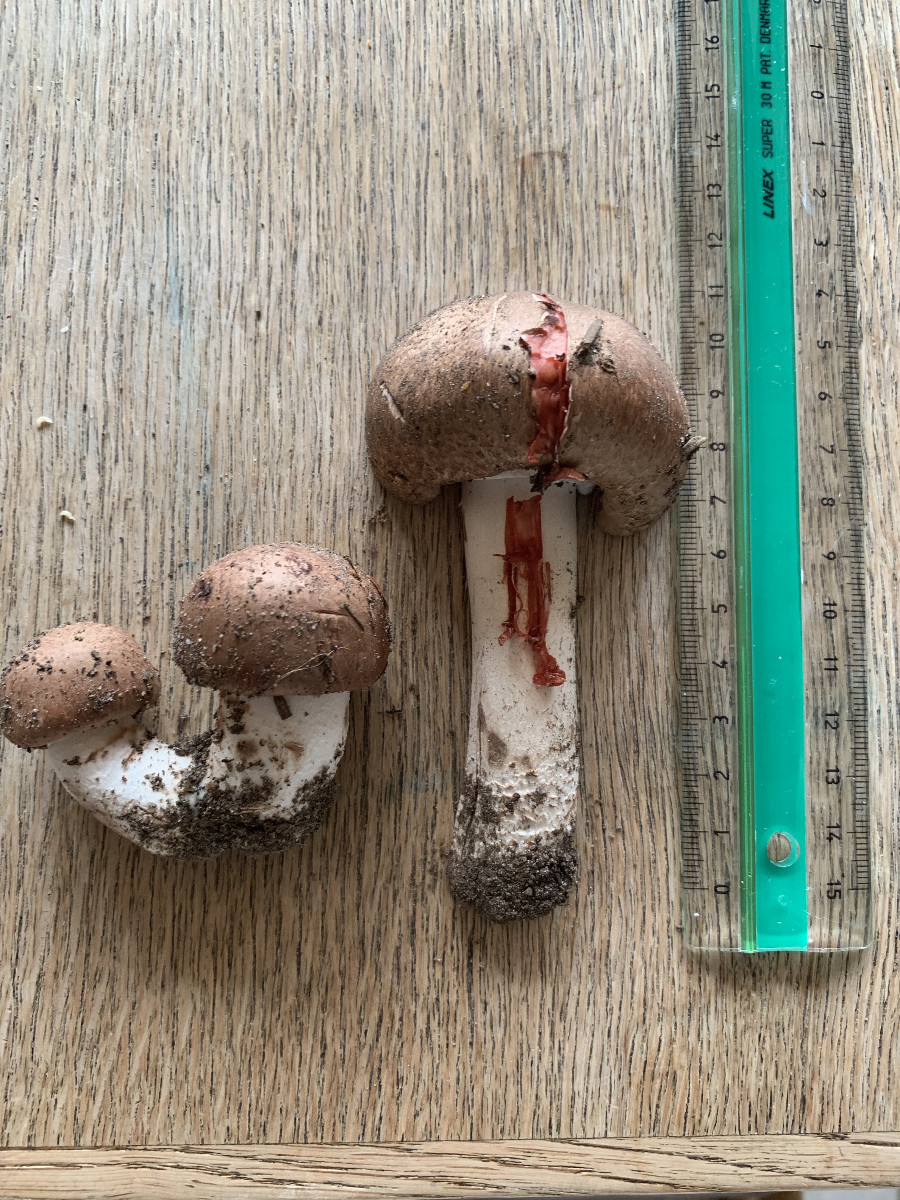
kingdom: Fungi
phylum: Basidiomycota
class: Agaricomycetes
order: Agaricales
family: Agaricaceae
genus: Agaricus
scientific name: Agaricus
